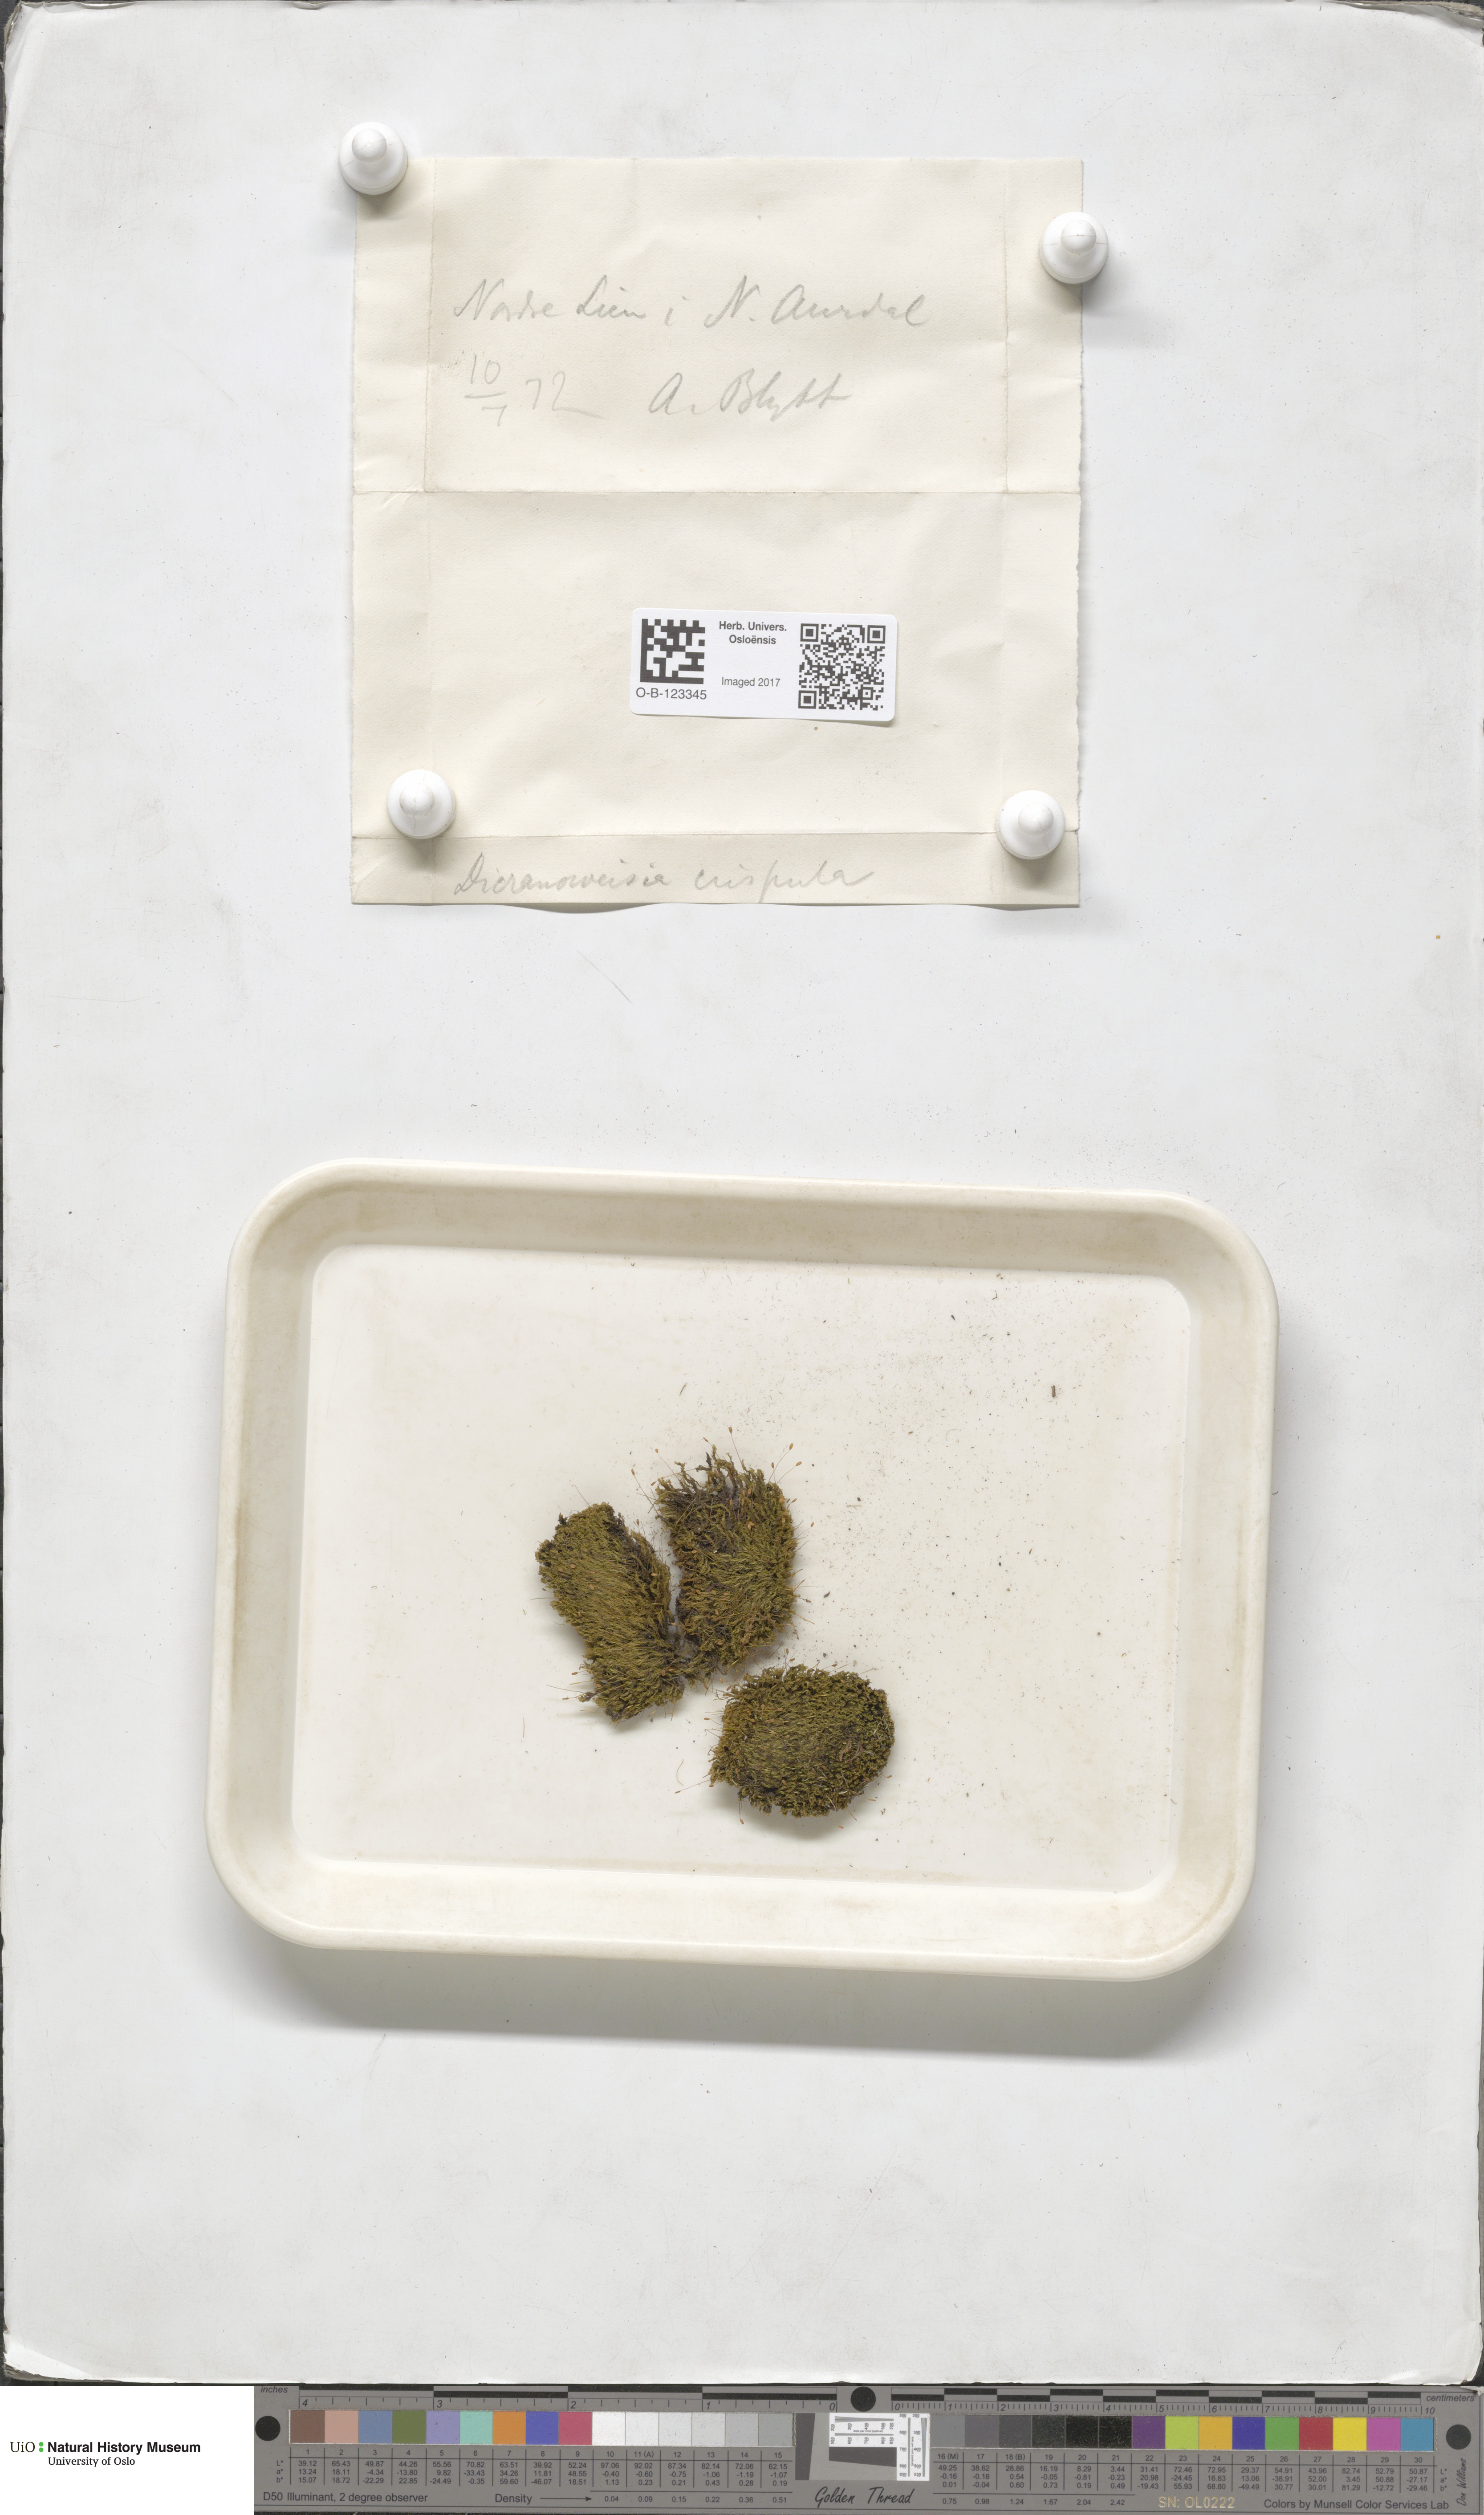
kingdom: Plantae
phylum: Bryophyta
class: Bryopsida
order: Scouleriales
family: Hymenolomataceae
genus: Hymenoloma
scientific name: Hymenoloma crispulum
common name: Mountain pincushion
